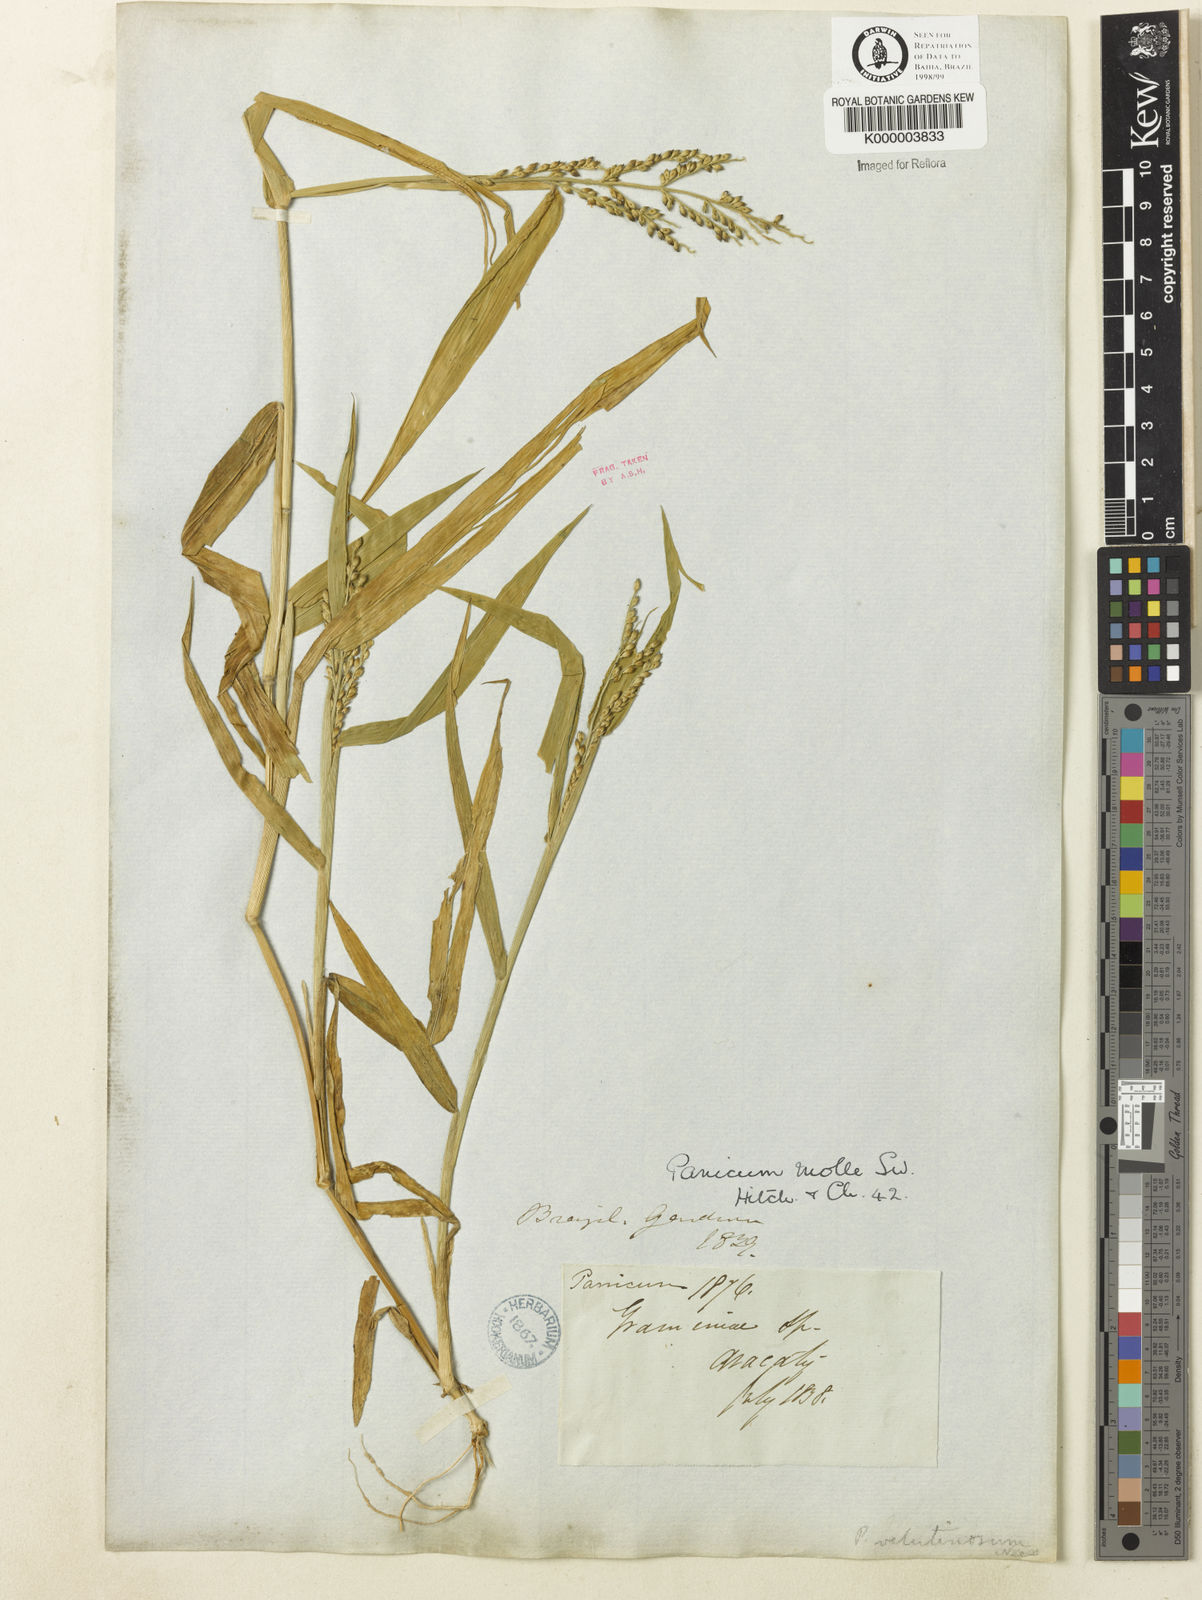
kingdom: Plantae
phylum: Tracheophyta
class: Liliopsida
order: Poales
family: Poaceae
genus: Urochloa
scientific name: Urochloa mollis
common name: Grass
